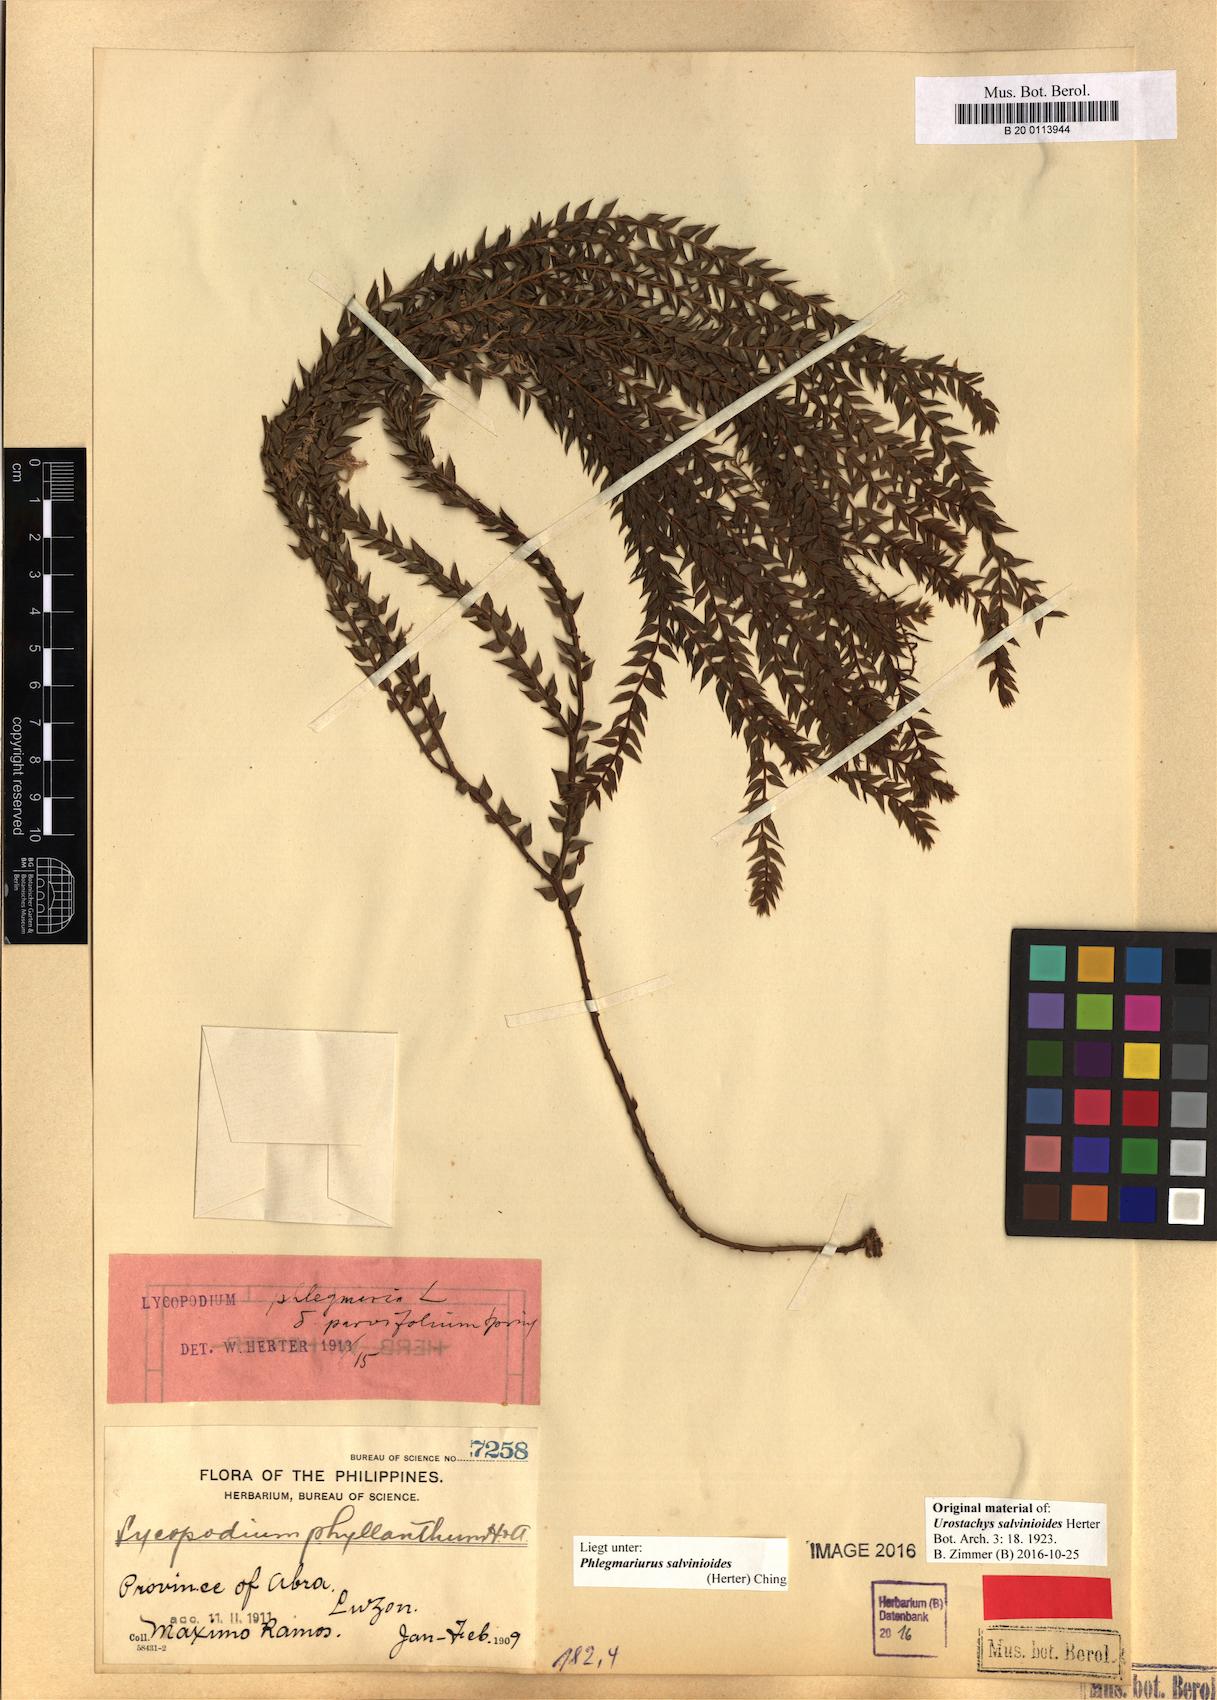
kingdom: Plantae
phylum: Tracheophyta
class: Lycopodiopsida
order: Lycopodiales
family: Lycopodiaceae
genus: Phlegmariurus
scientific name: Phlegmariurus salvinioides
